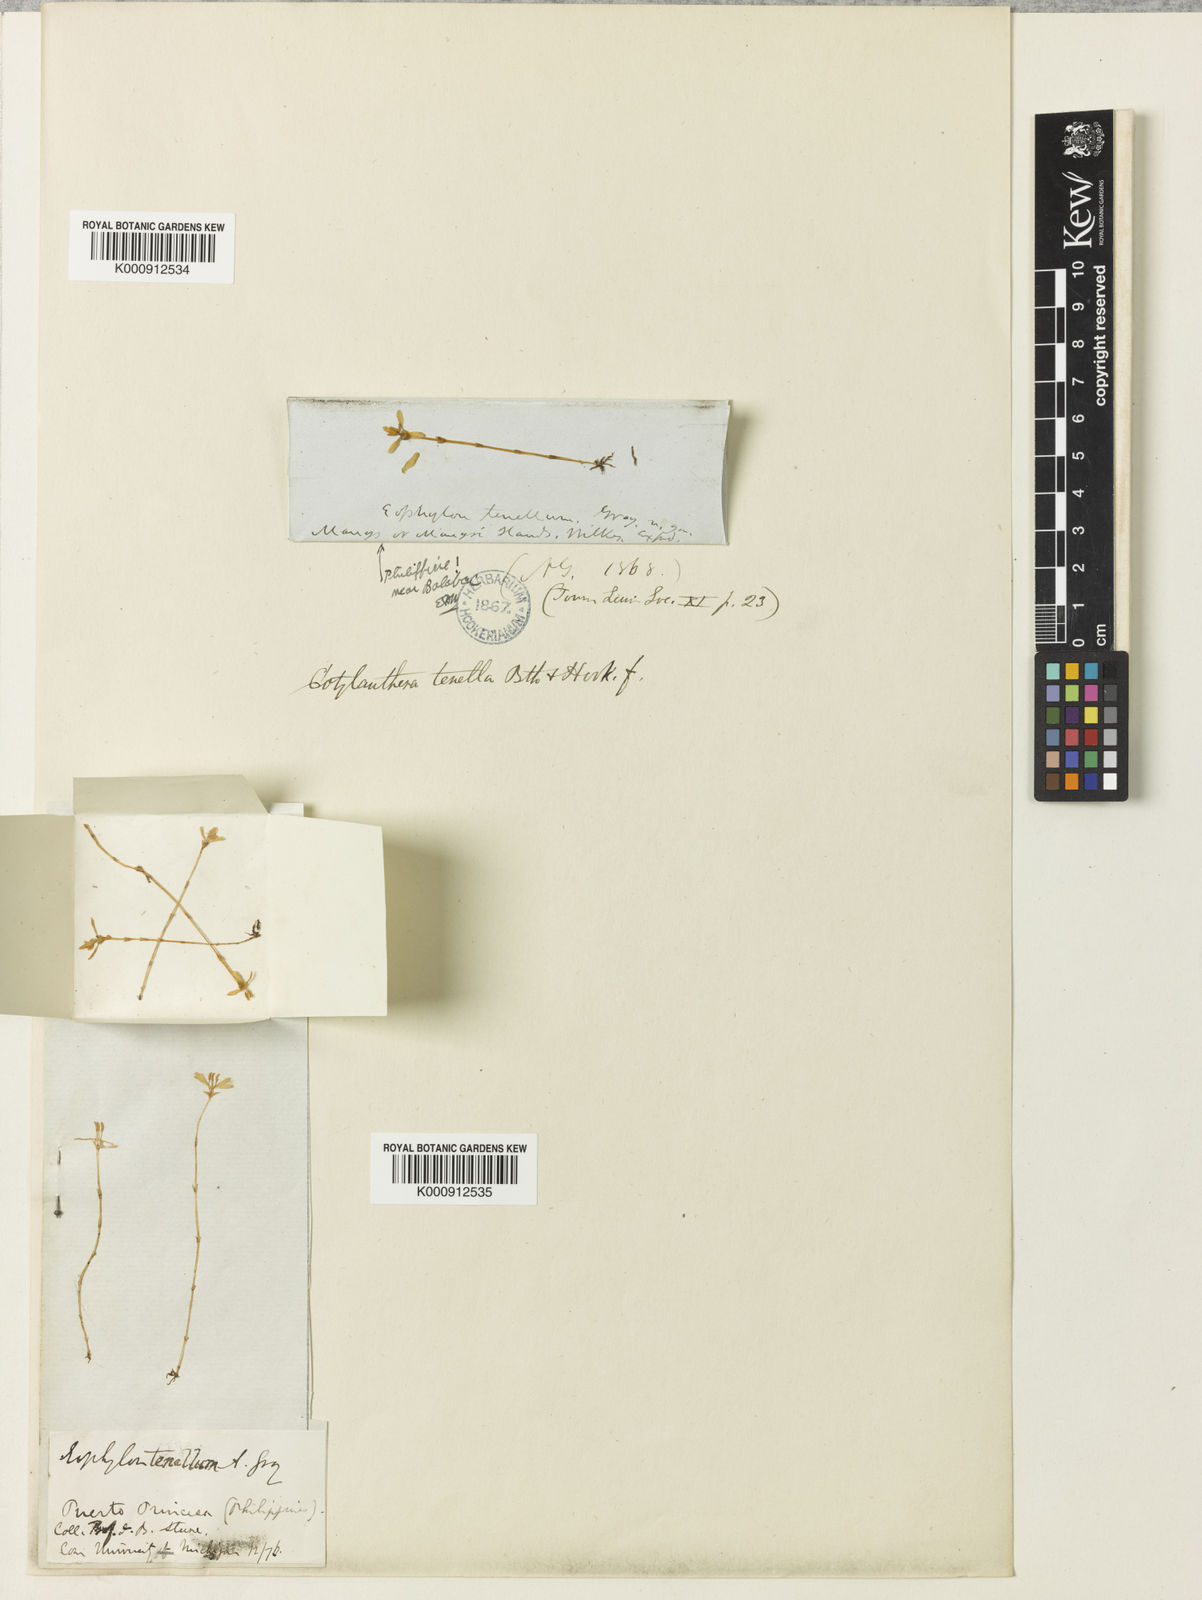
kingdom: Plantae
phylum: Tracheophyta
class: Magnoliopsida
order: Gentianales
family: Gentianaceae
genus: Exacum
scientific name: Exacum tenue
